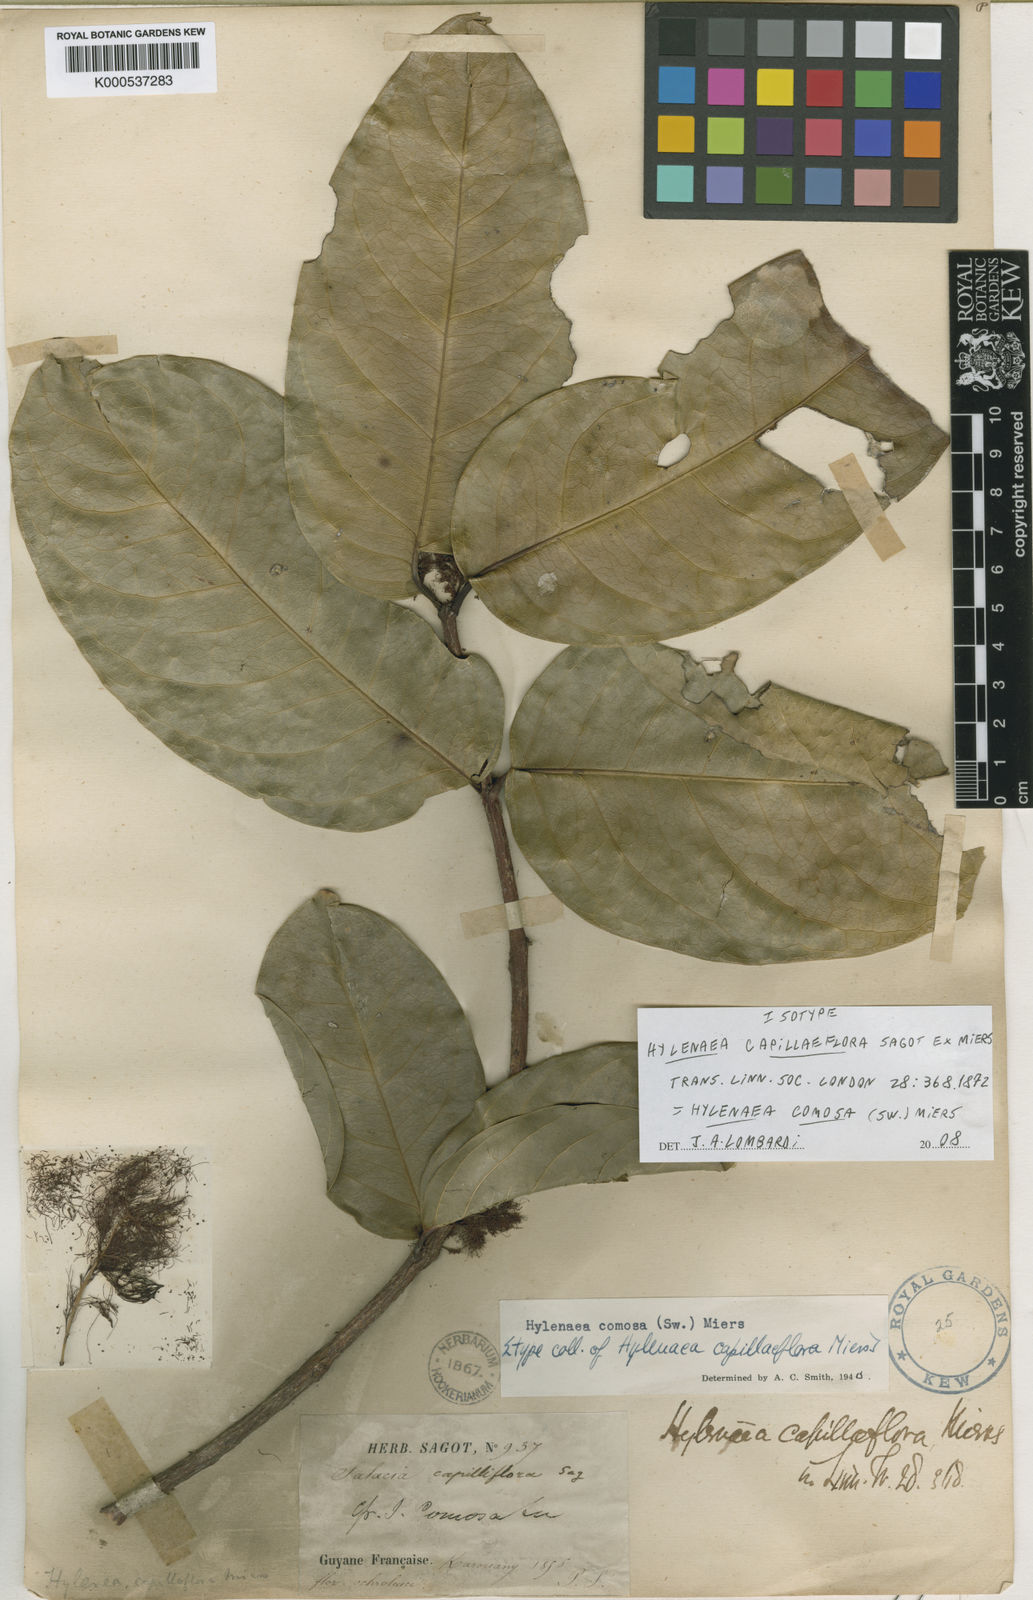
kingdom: Plantae
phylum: Tracheophyta
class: Magnoliopsida
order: Celastrales
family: Celastraceae
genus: Hylenaea
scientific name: Hylenaea comosa
